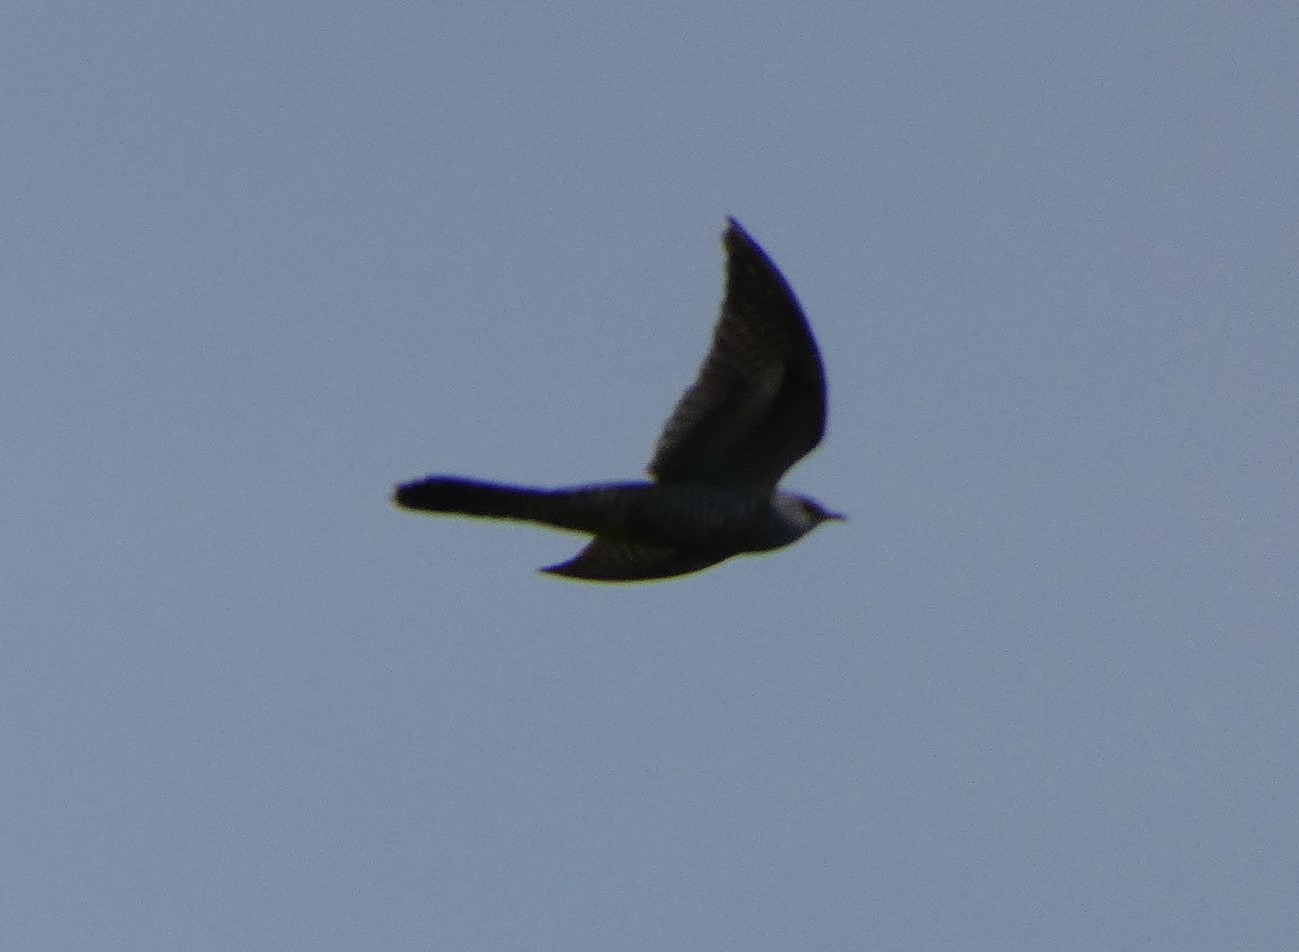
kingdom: Animalia
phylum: Chordata
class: Aves
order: Cuculiformes
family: Cuculidae
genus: Cuculus
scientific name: Cuculus canorus
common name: Gøg
